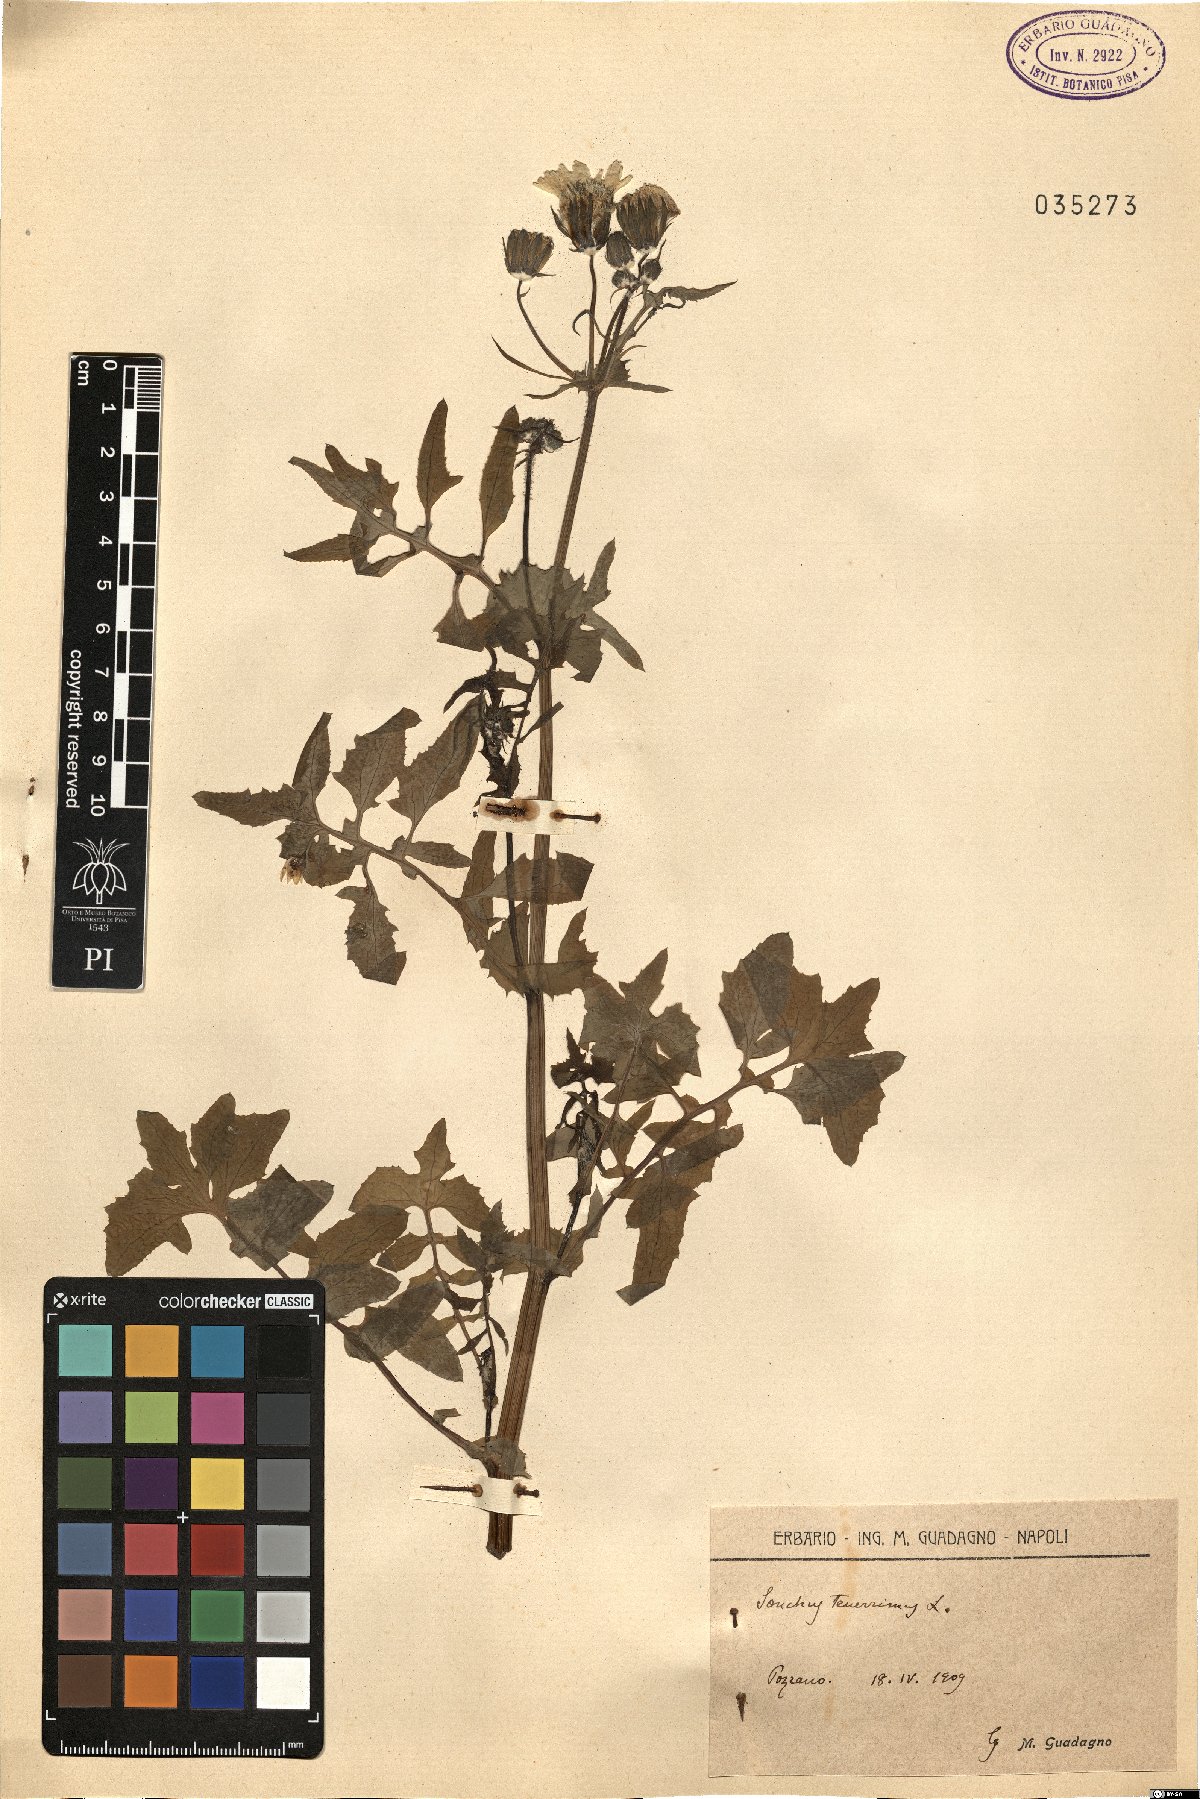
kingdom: Plantae
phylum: Tracheophyta
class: Magnoliopsida
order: Asterales
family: Asteraceae
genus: Sonchus
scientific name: Sonchus tenerrimus
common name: Clammy sowthistle
